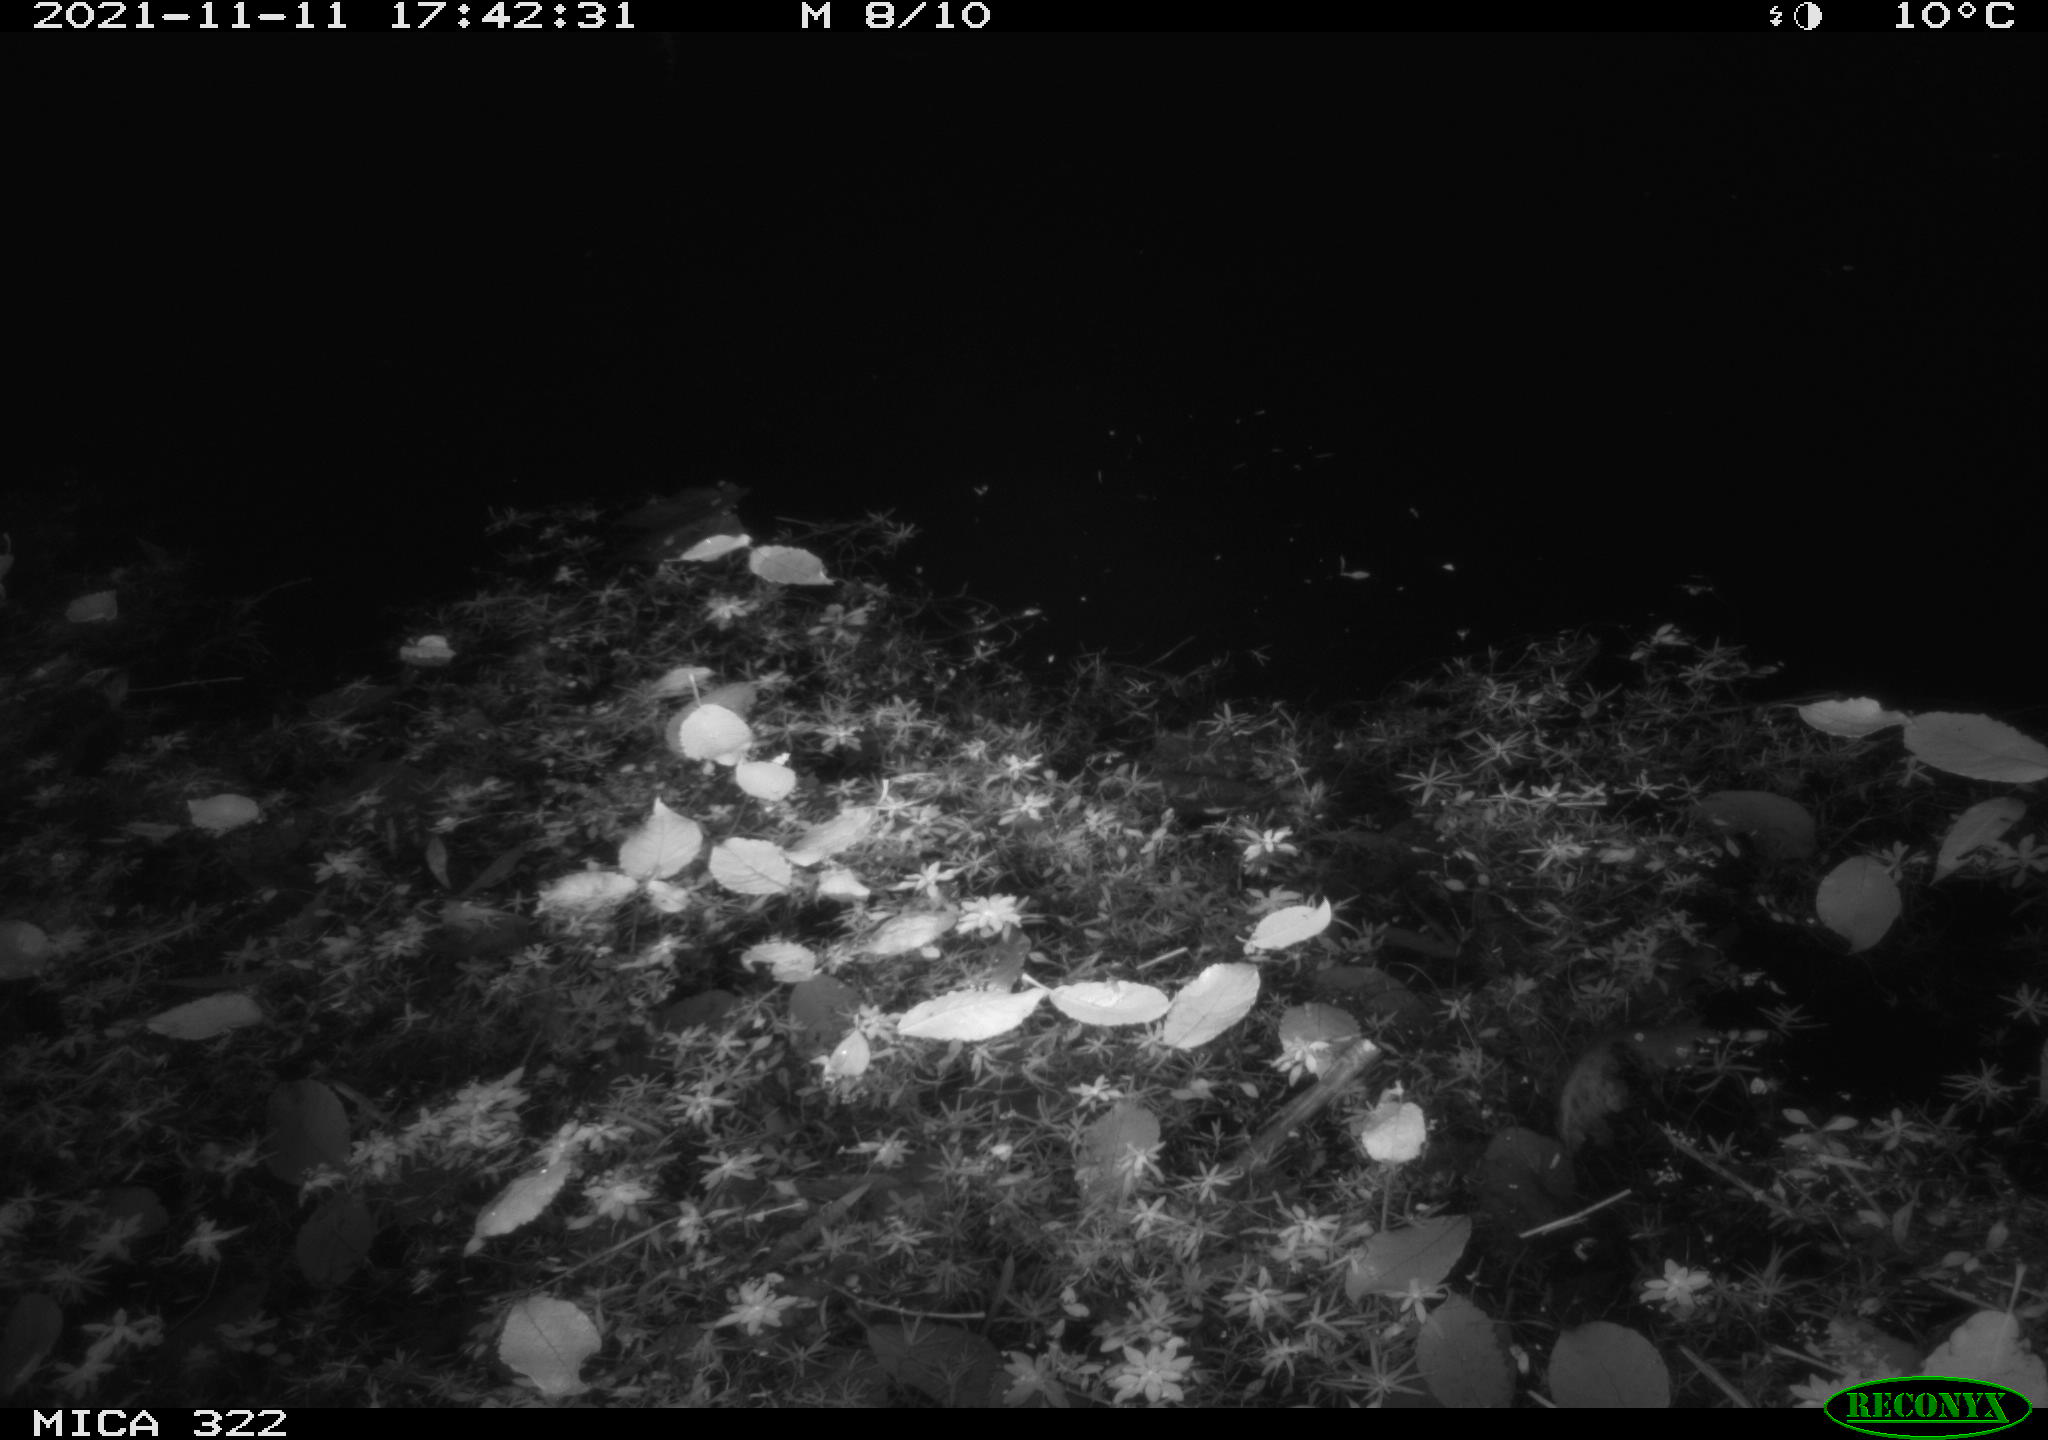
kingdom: Animalia
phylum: Chordata
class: Mammalia
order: Rodentia
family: Muridae
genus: Rattus
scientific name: Rattus norvegicus
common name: Brown rat
